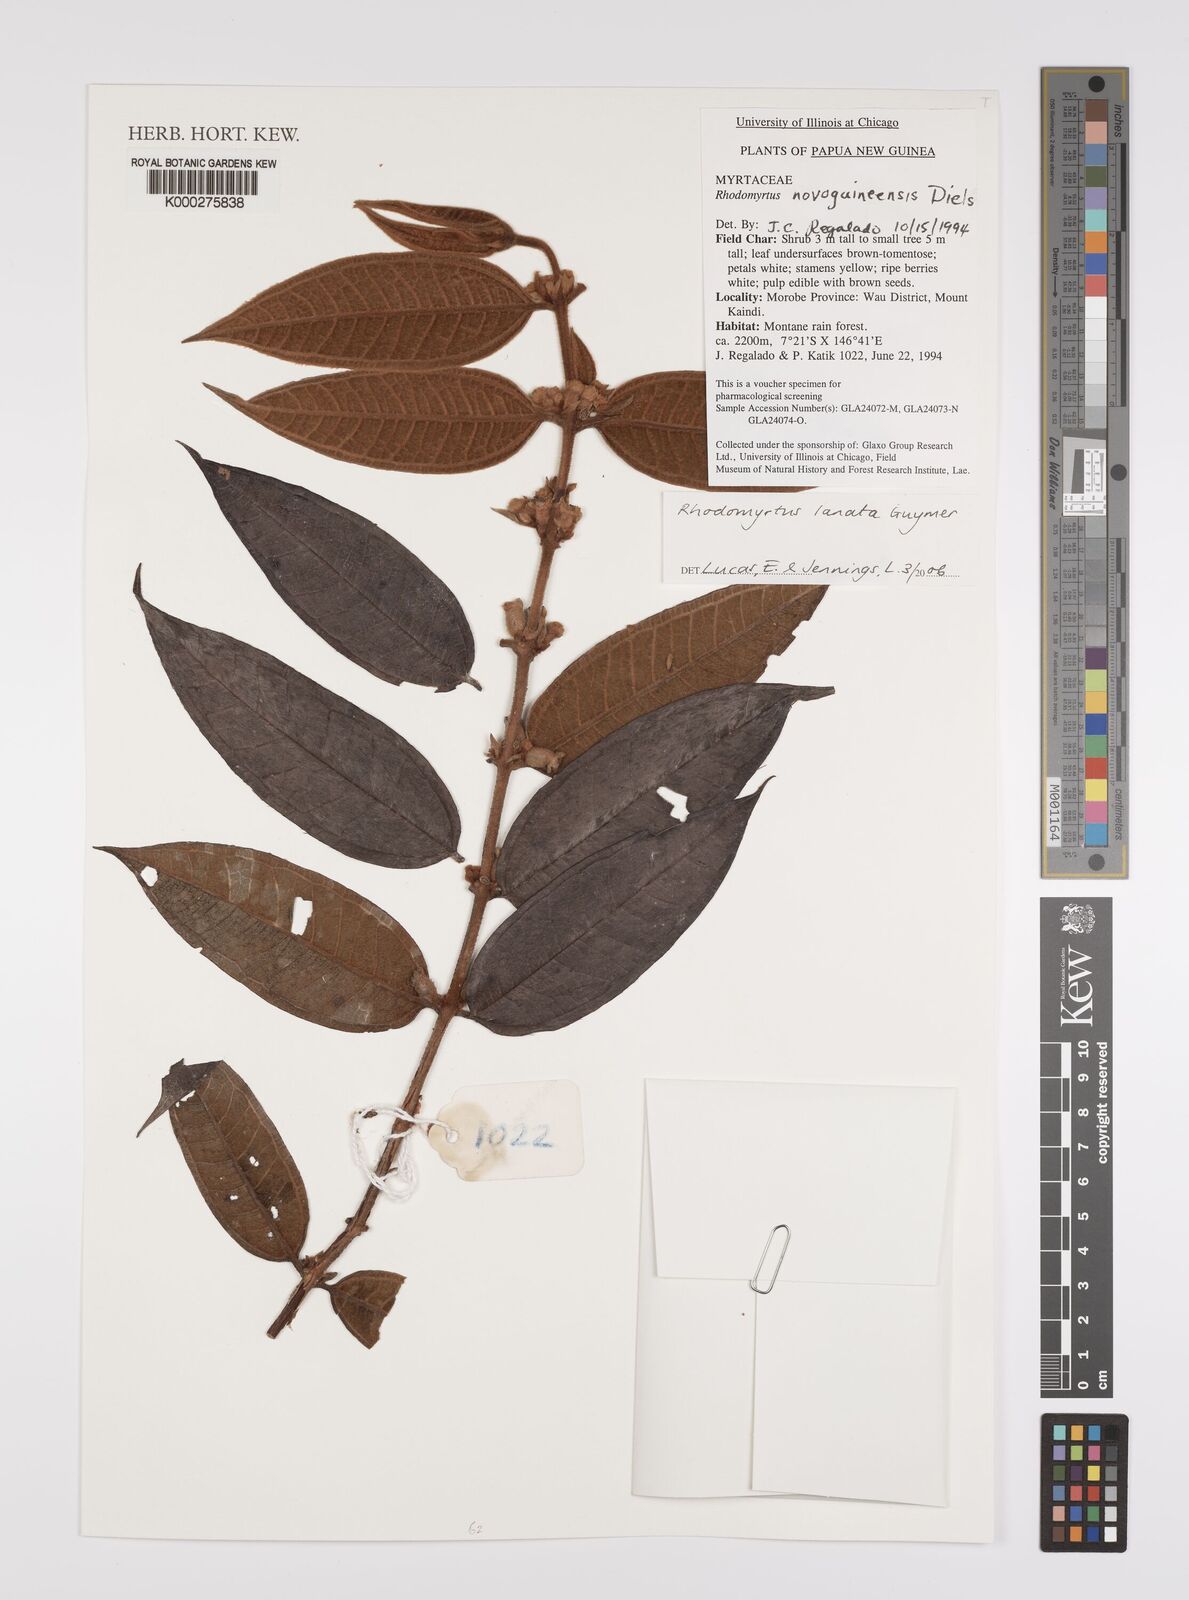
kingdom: Plantae
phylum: Tracheophyta
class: Magnoliopsida
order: Myrtales
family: Myrtaceae
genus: Rhodomyrtus
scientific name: Rhodomyrtus lanata
